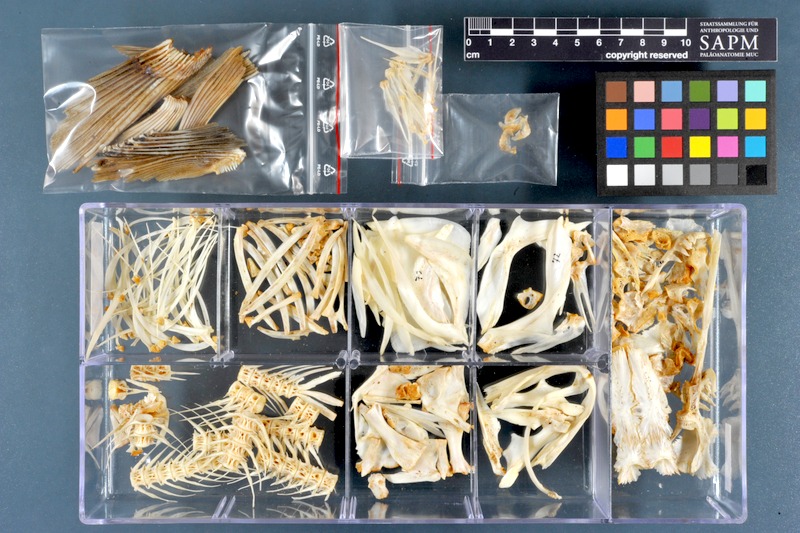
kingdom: Animalia
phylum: Chordata
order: Cypriniformes
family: Cyprinidae
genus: Leuciscus
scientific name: Leuciscus vorax
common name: Mesopotamian asp
